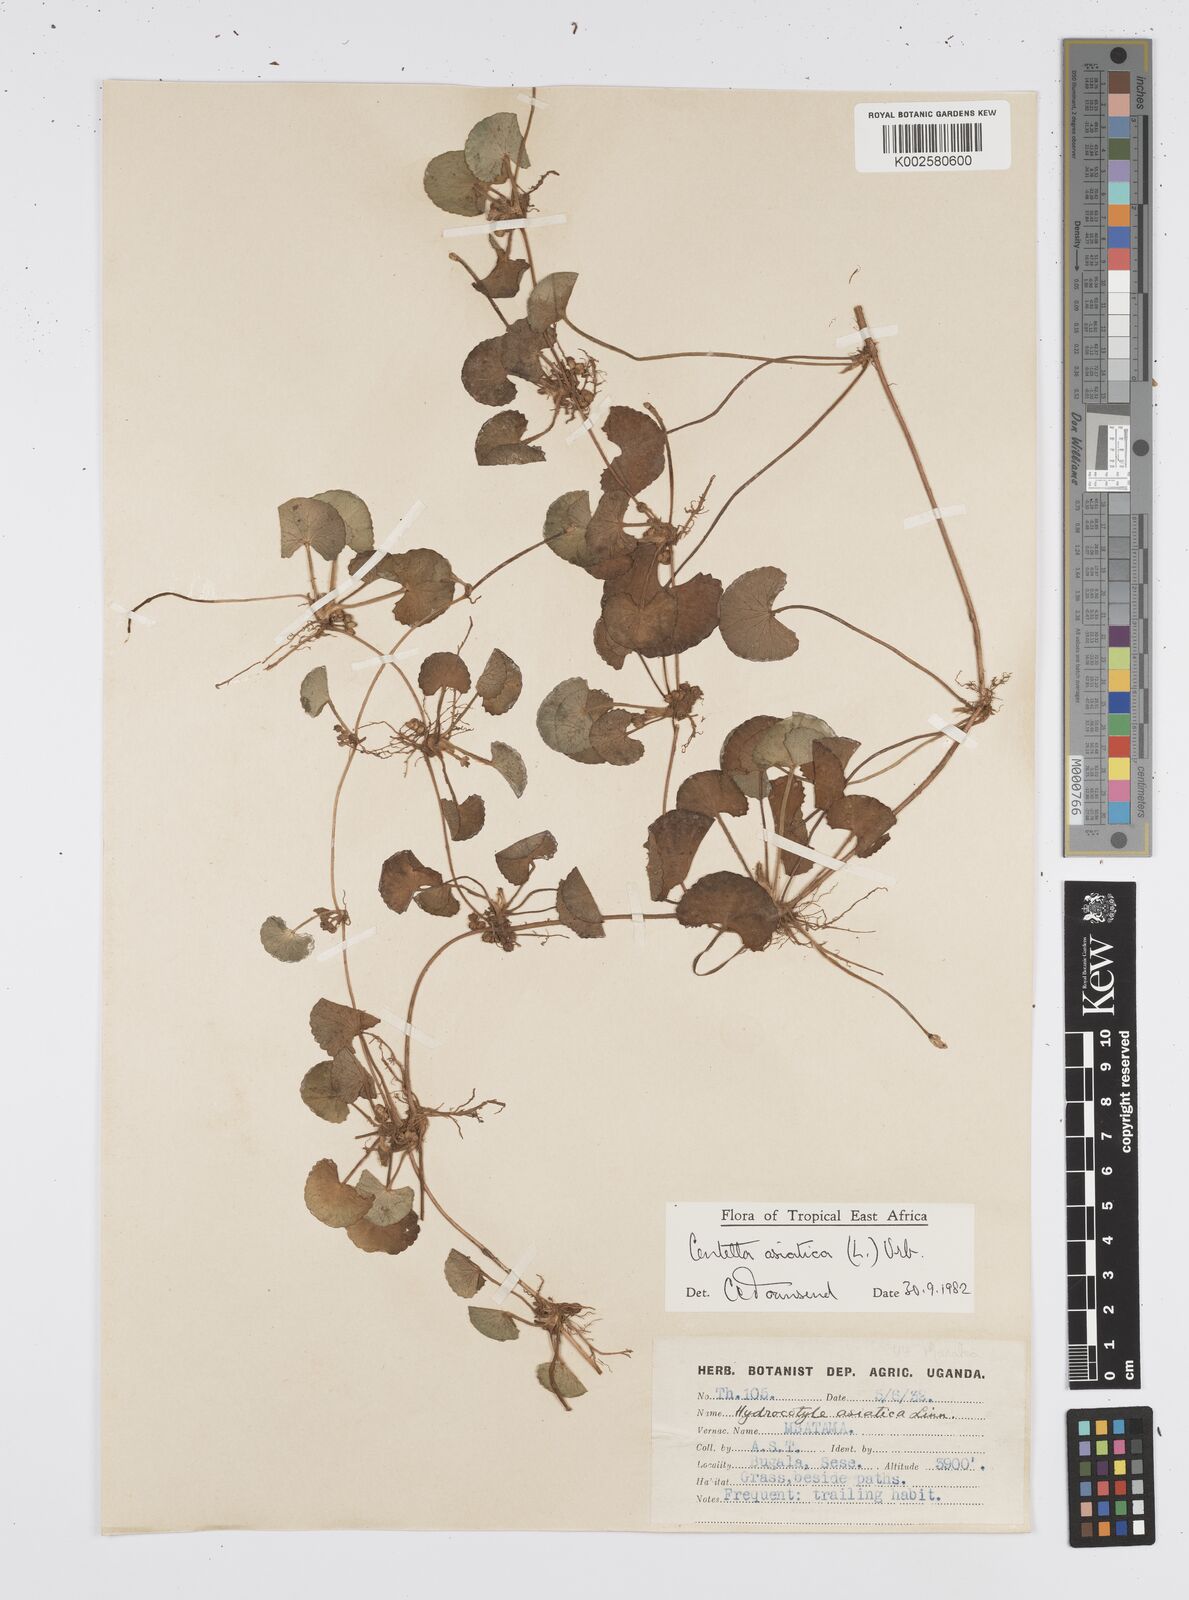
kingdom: Plantae
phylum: Tracheophyta
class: Magnoliopsida
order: Apiales
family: Apiaceae
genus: Centella
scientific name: Centella asiatica
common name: Spadeleaf
